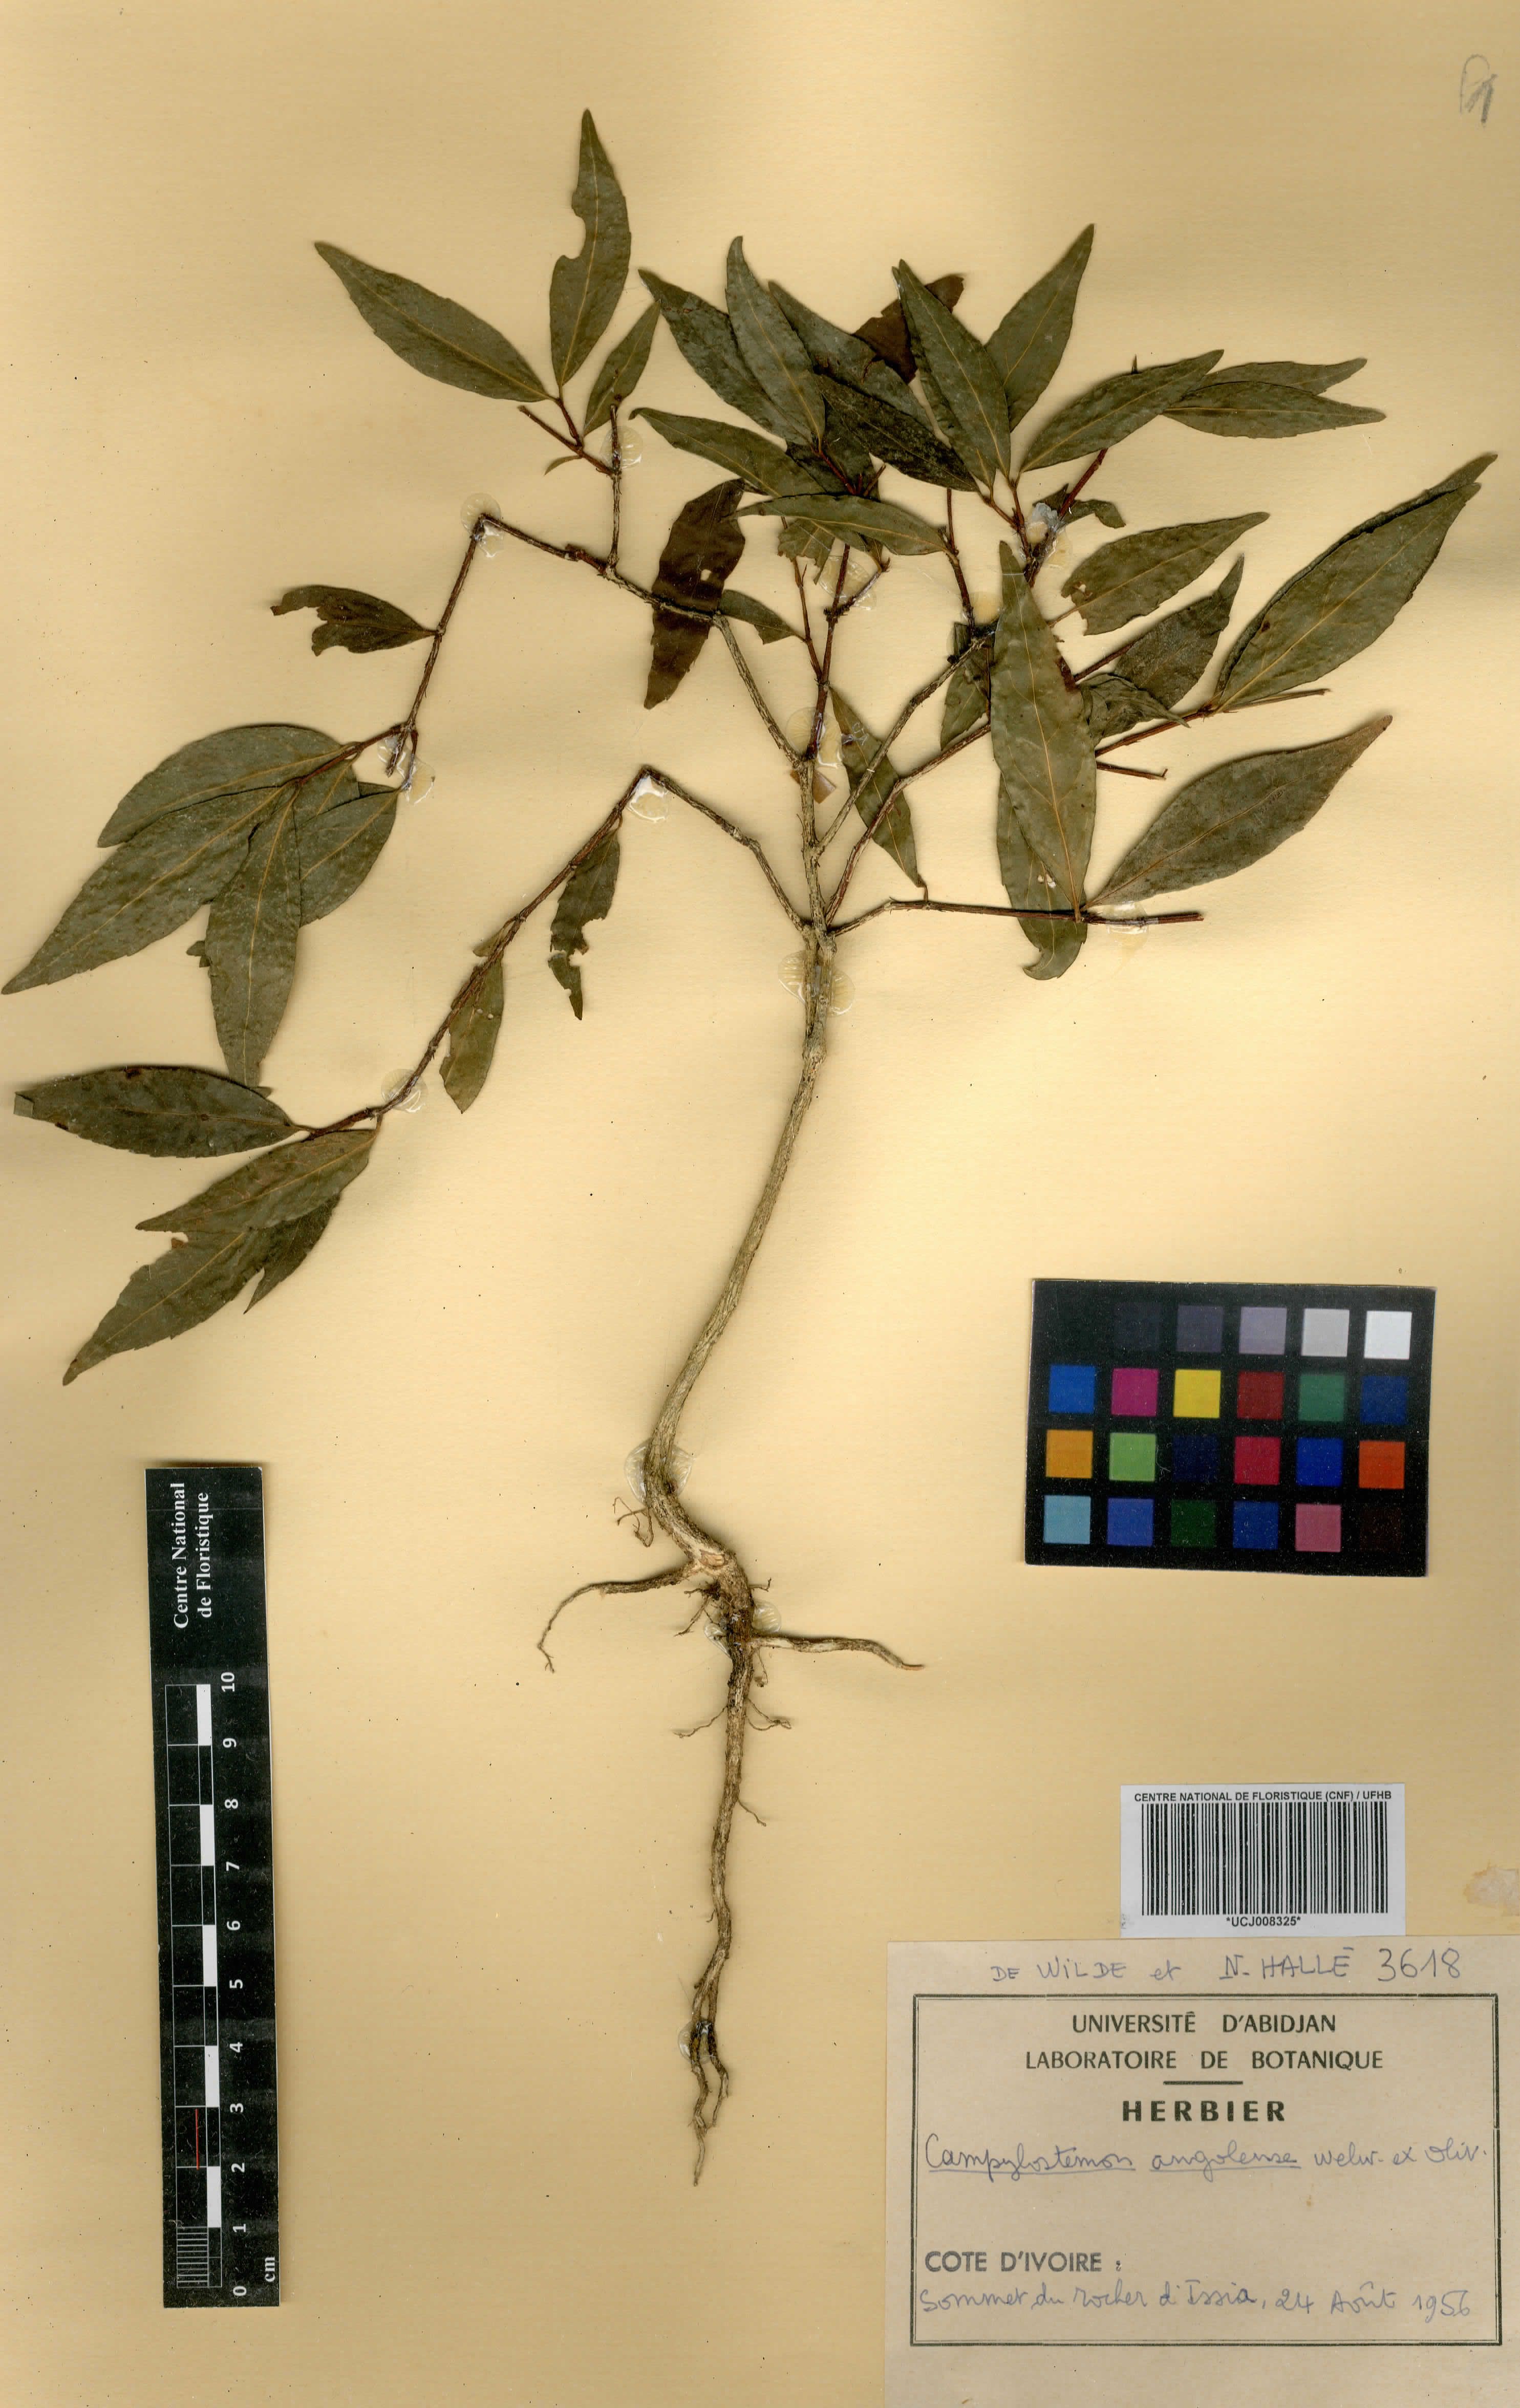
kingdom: Plantae
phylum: Tracheophyta
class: Magnoliopsida
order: Celastrales
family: Celastraceae
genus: Campylostemon
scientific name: Campylostemon angolense
